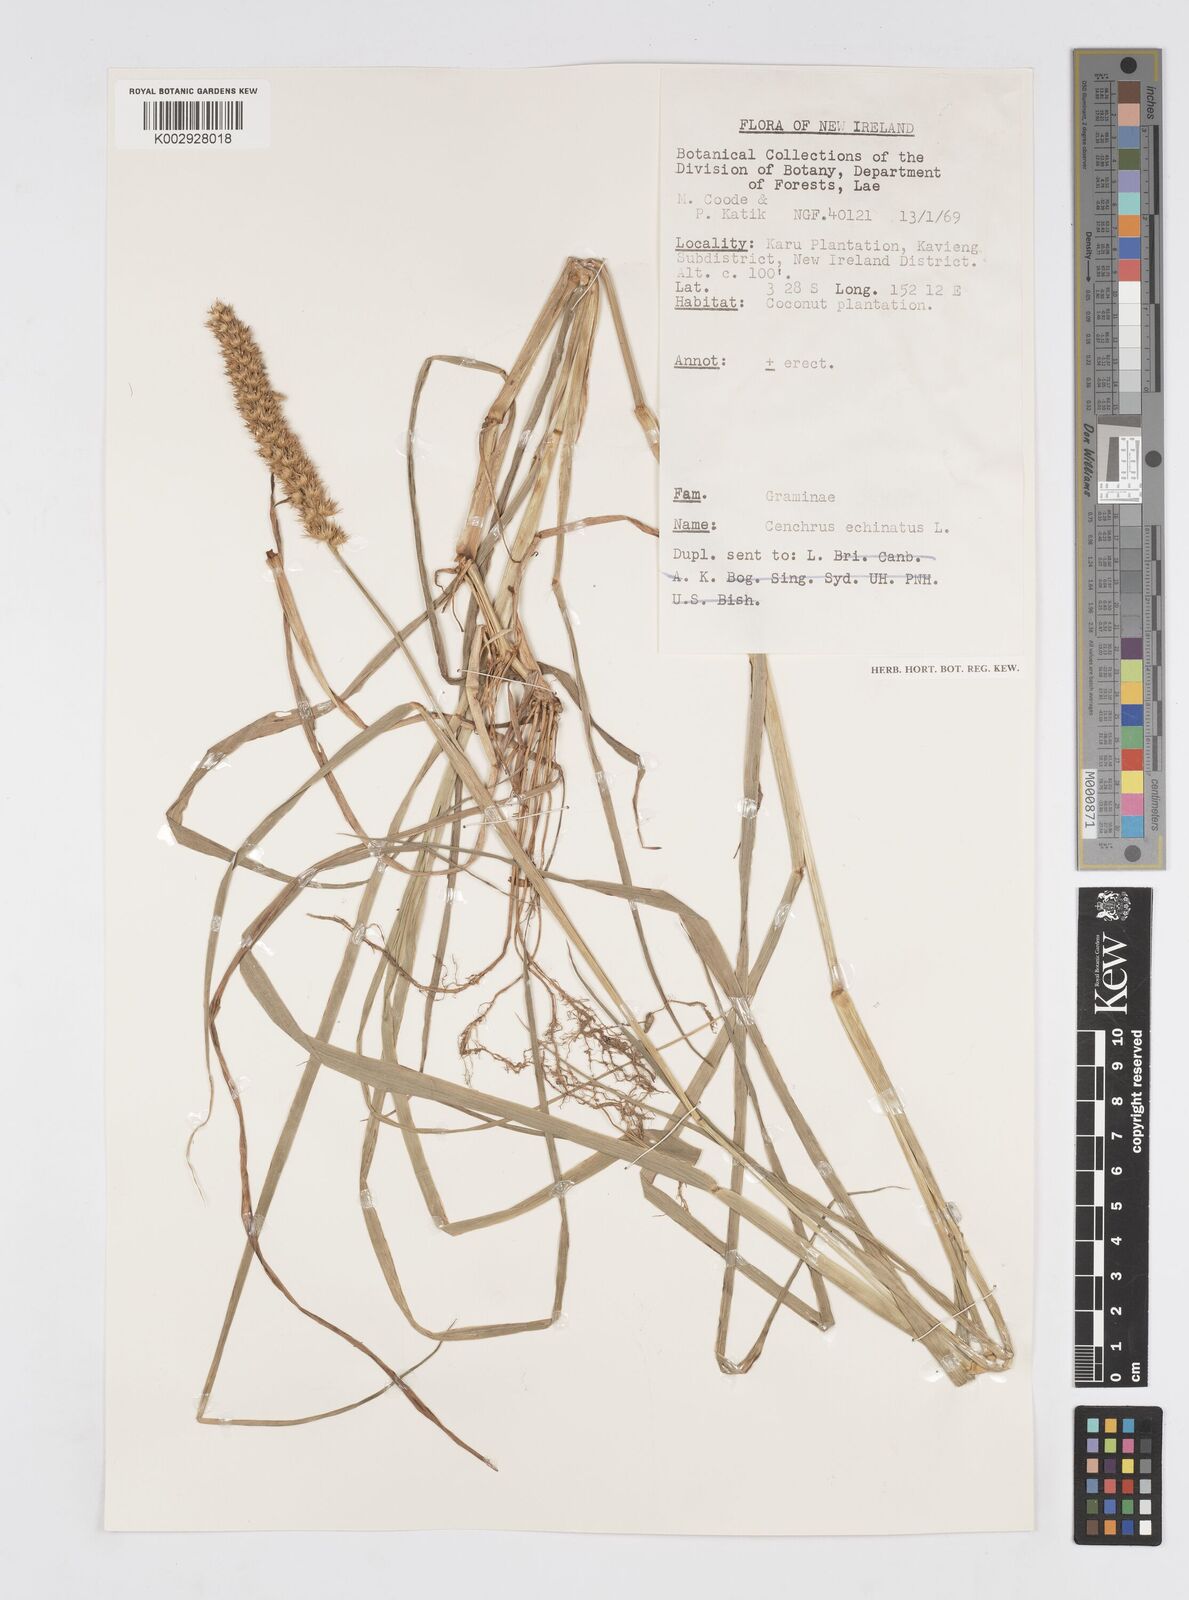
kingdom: Plantae
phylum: Tracheophyta
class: Liliopsida
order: Poales
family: Poaceae
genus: Cenchrus
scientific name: Cenchrus brownii
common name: Slim-bristle sandbur
